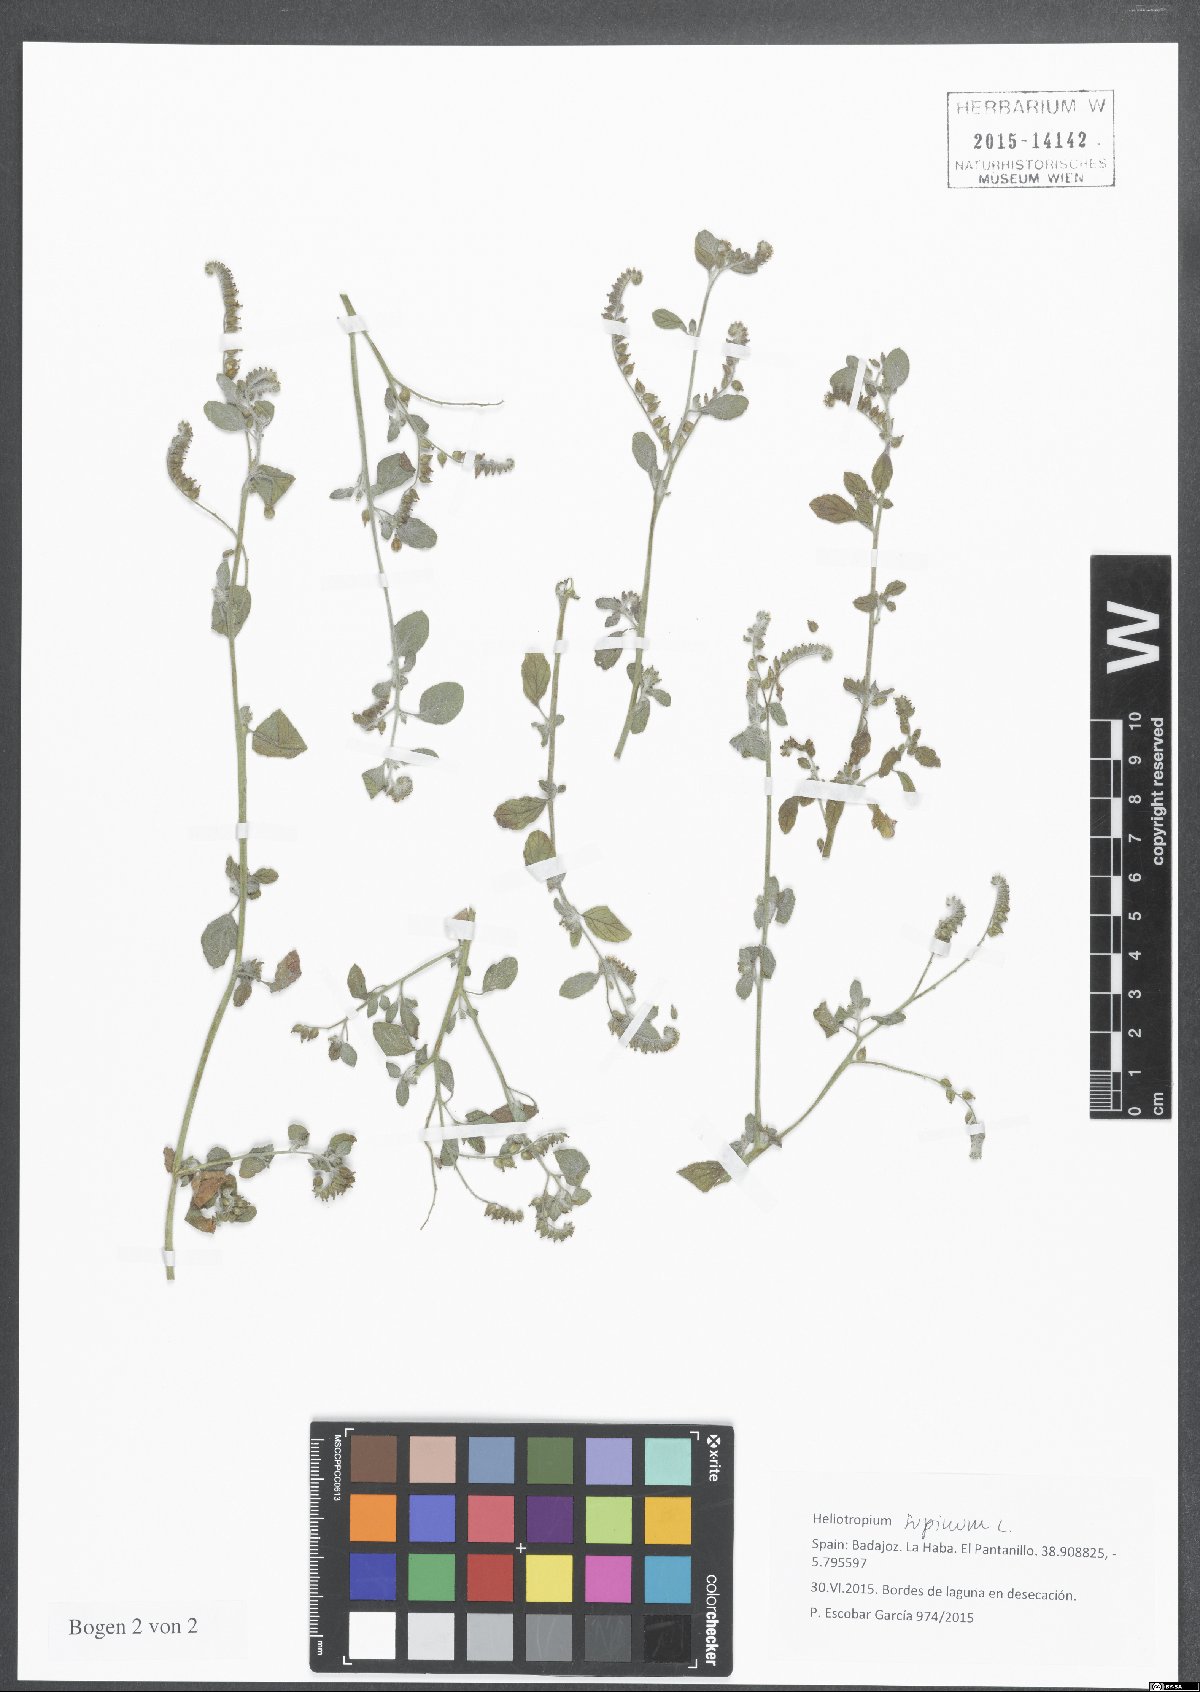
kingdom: Plantae
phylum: Tracheophyta
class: Magnoliopsida
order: Boraginales
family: Heliotropiaceae
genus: Heliotropium
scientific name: Heliotropium supinum
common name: Dwarf heliotrope
